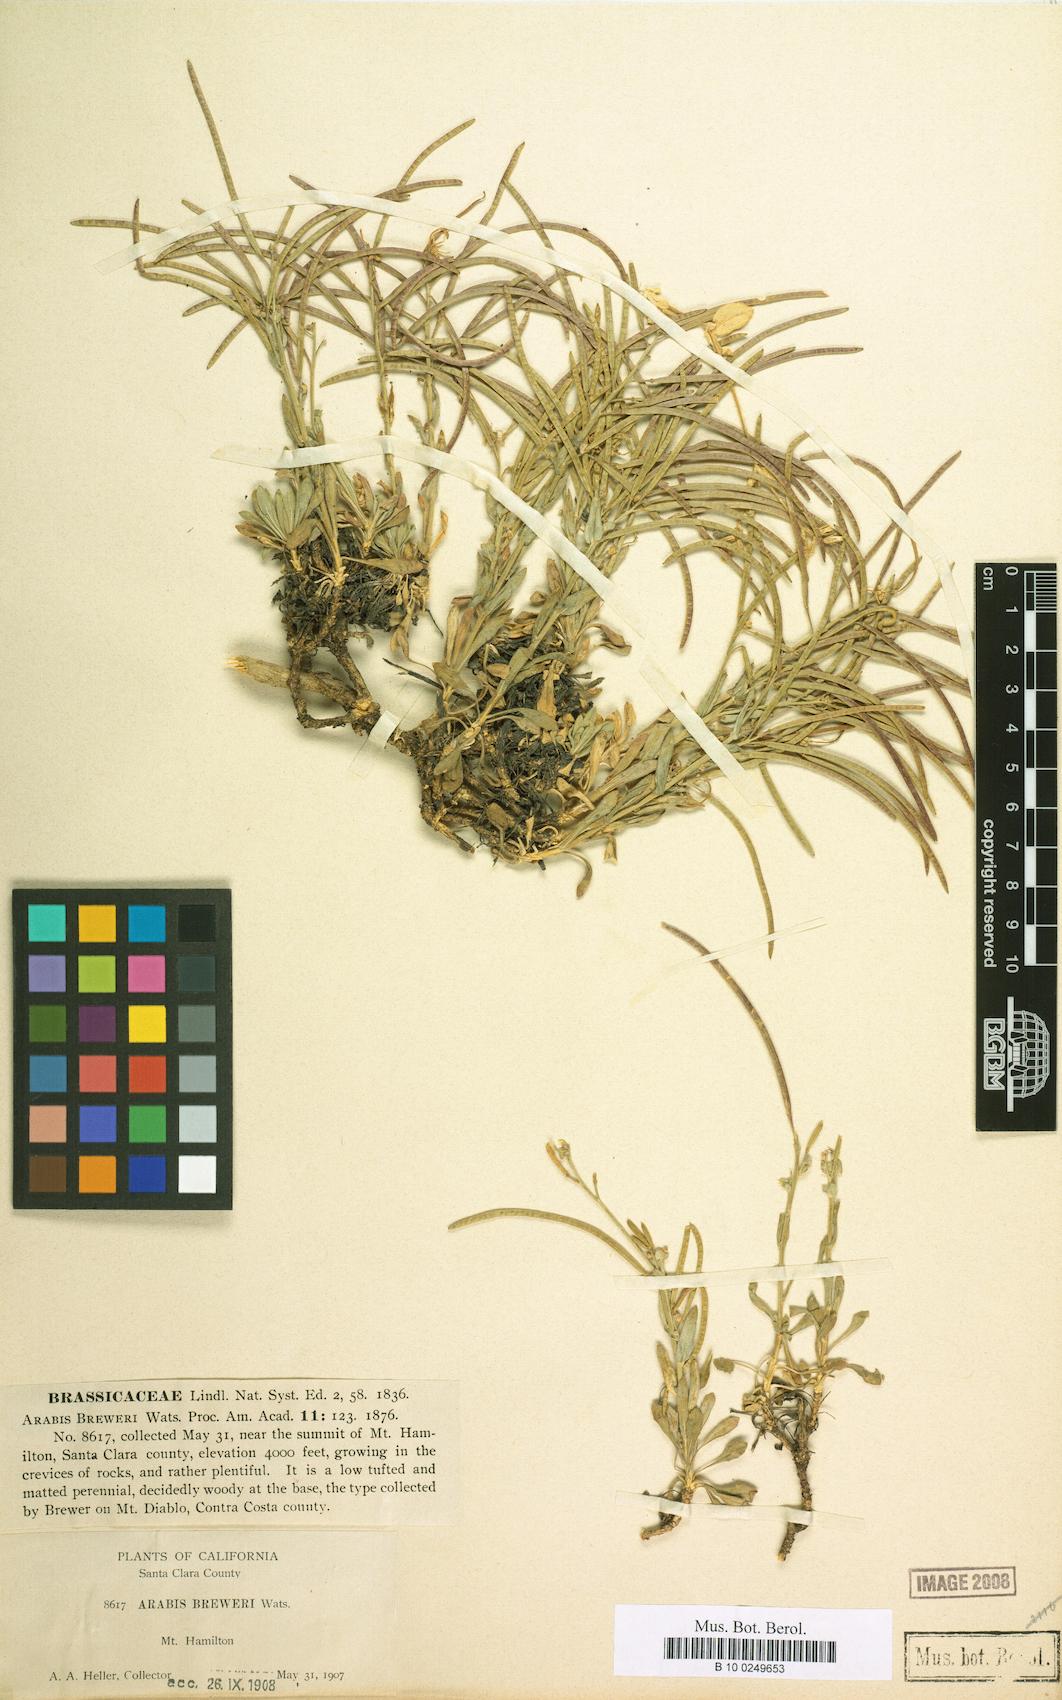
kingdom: Plantae
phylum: Tracheophyta
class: Magnoliopsida
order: Brassicales
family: Brassicaceae
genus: Boechera
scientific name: Boechera breweri
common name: Brewer's rockcress
